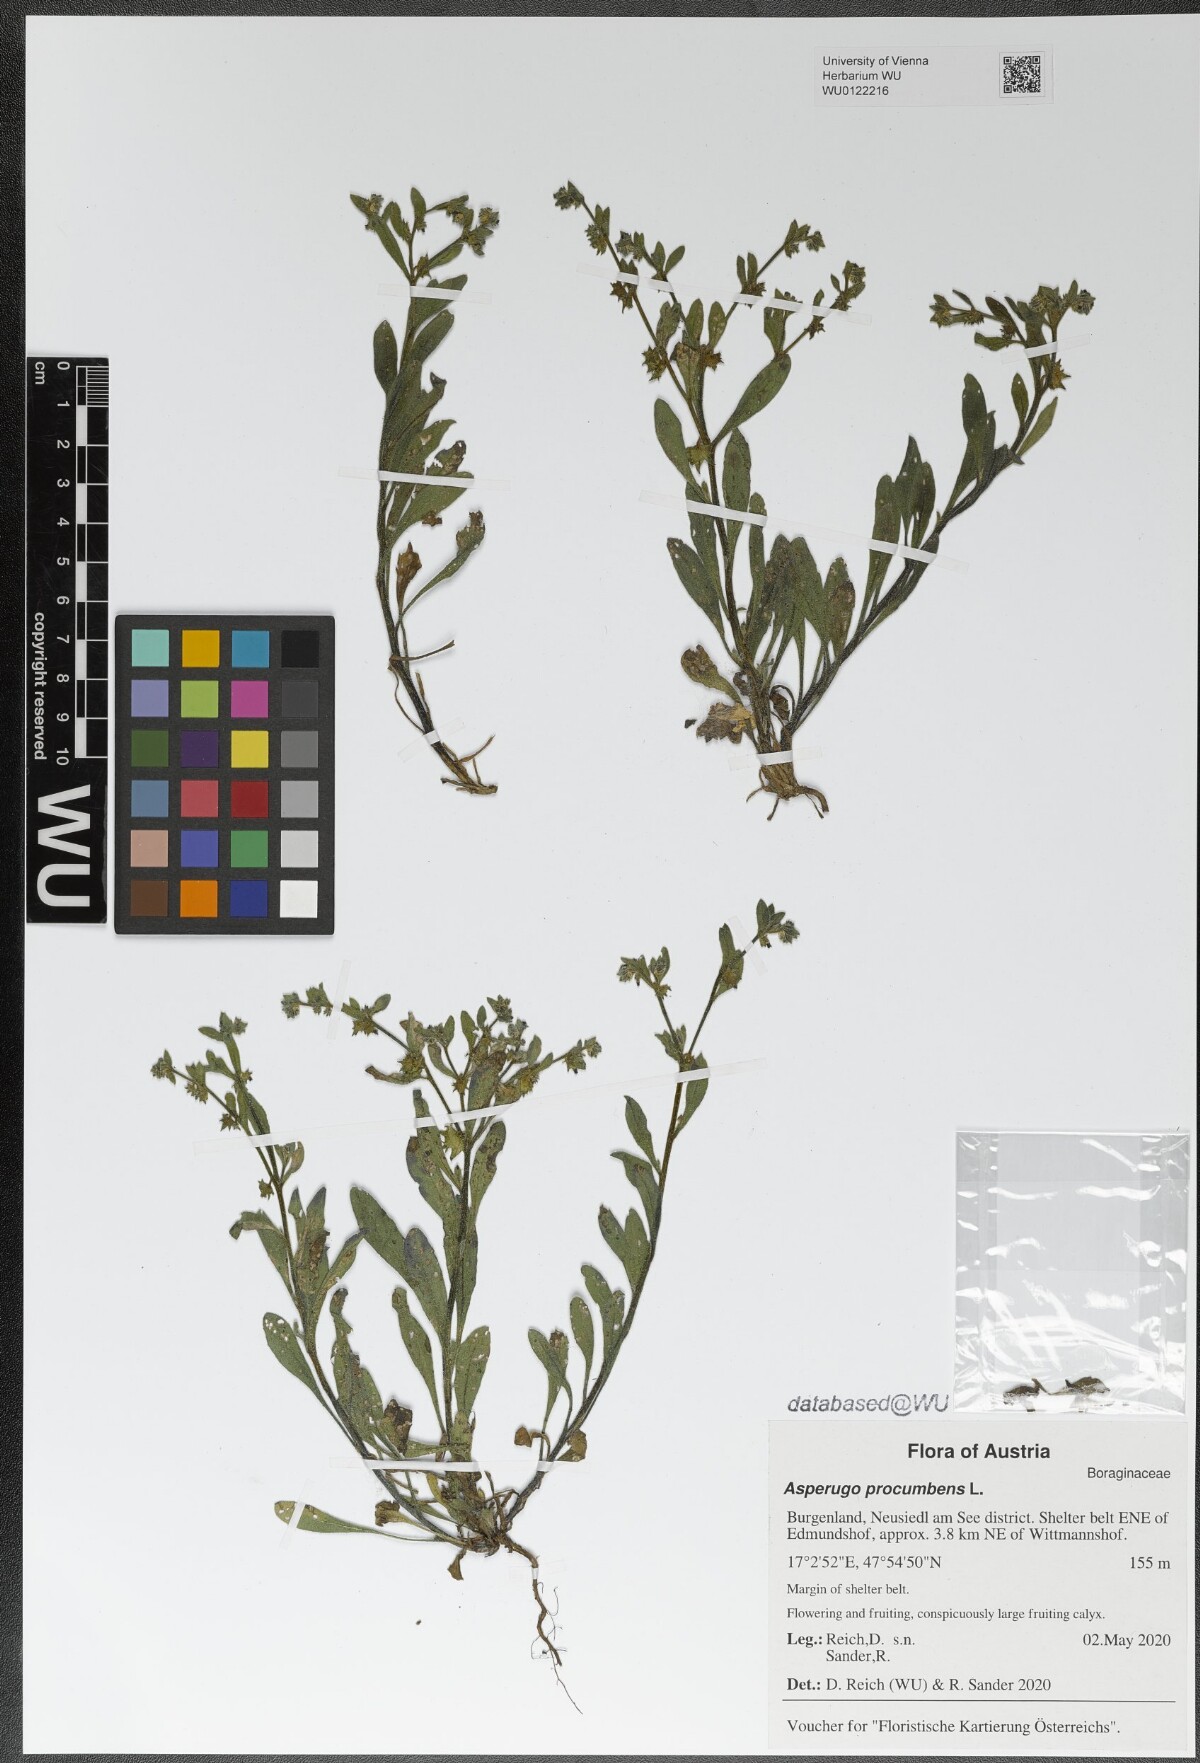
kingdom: Plantae
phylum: Tracheophyta
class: Magnoliopsida
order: Boraginales
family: Boraginaceae
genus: Asperugo
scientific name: Asperugo procumbens
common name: Madwort
